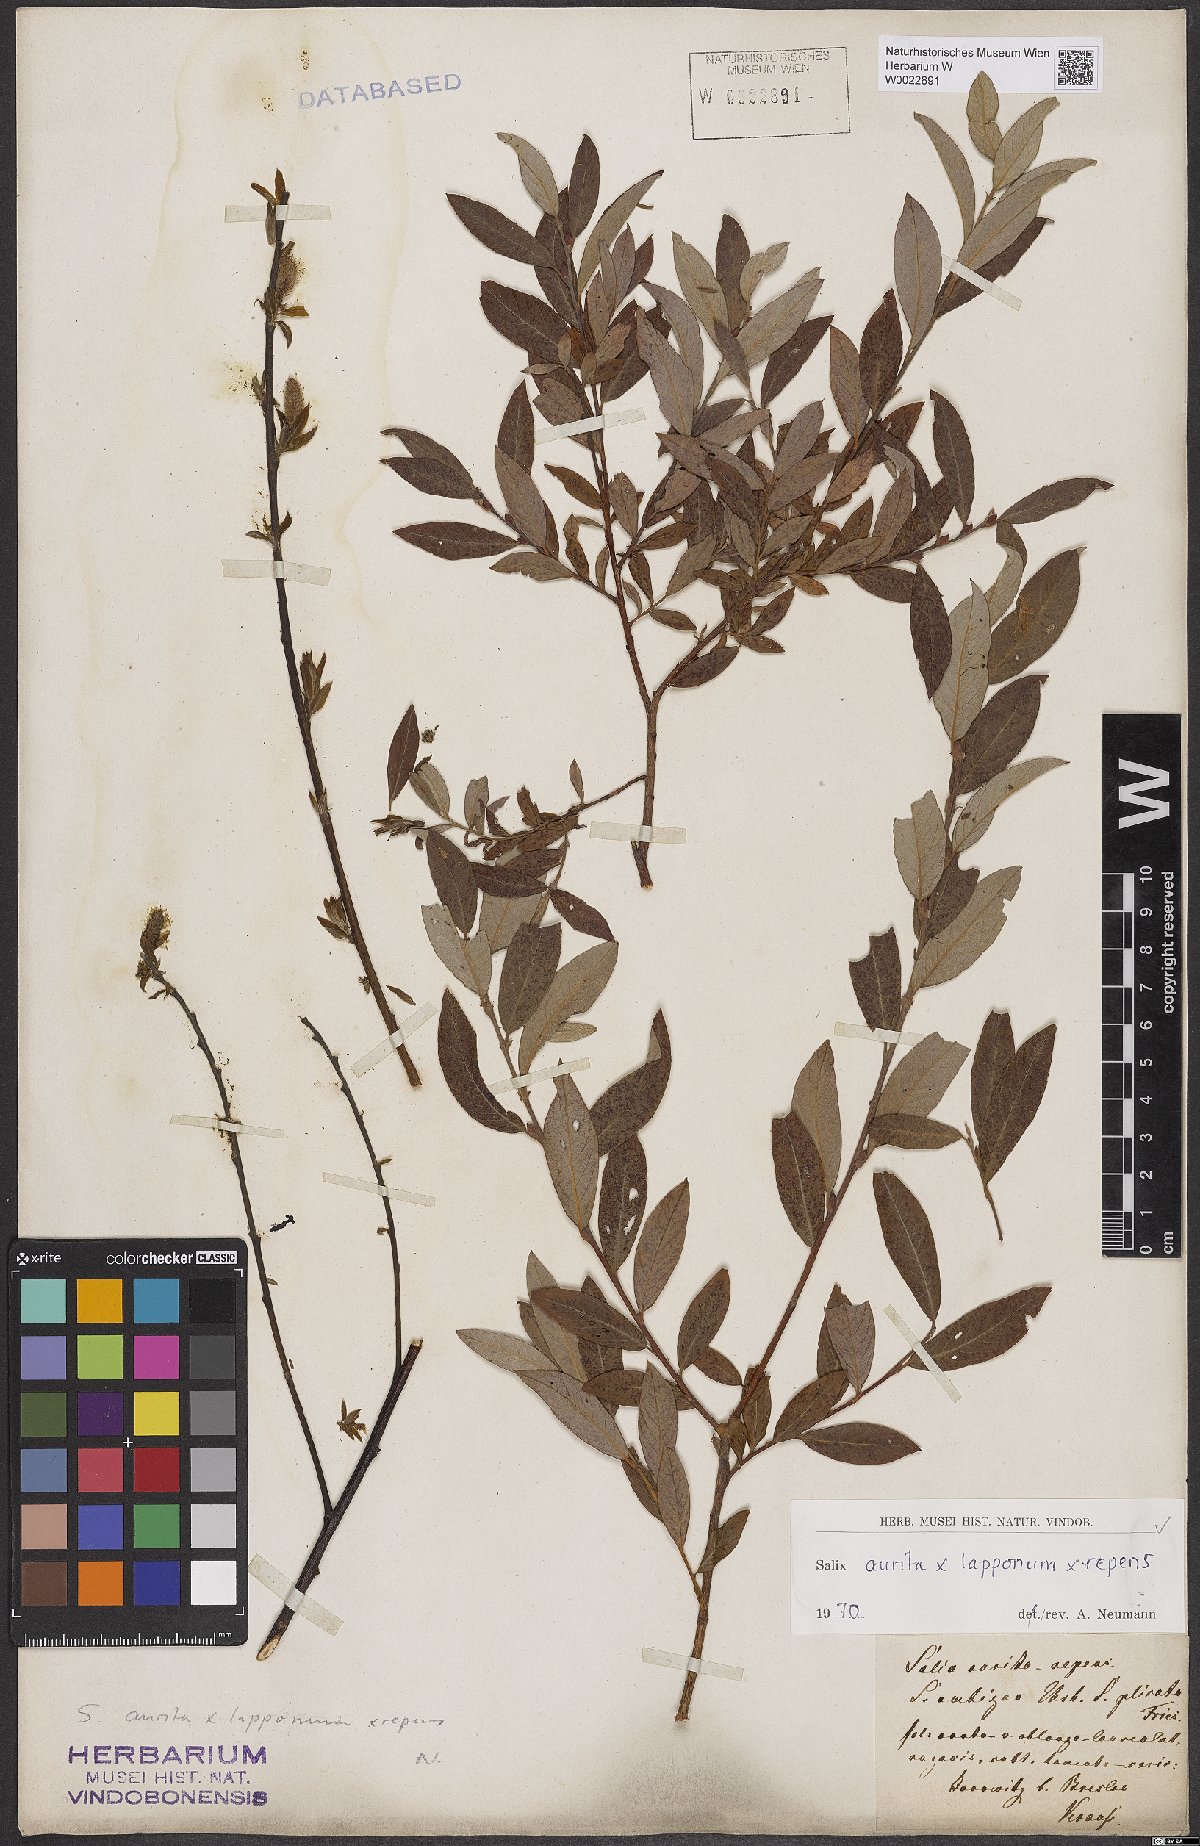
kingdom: Plantae
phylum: Tracheophyta
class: Magnoliopsida
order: Malpighiales
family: Salicaceae
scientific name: Salicaceae
